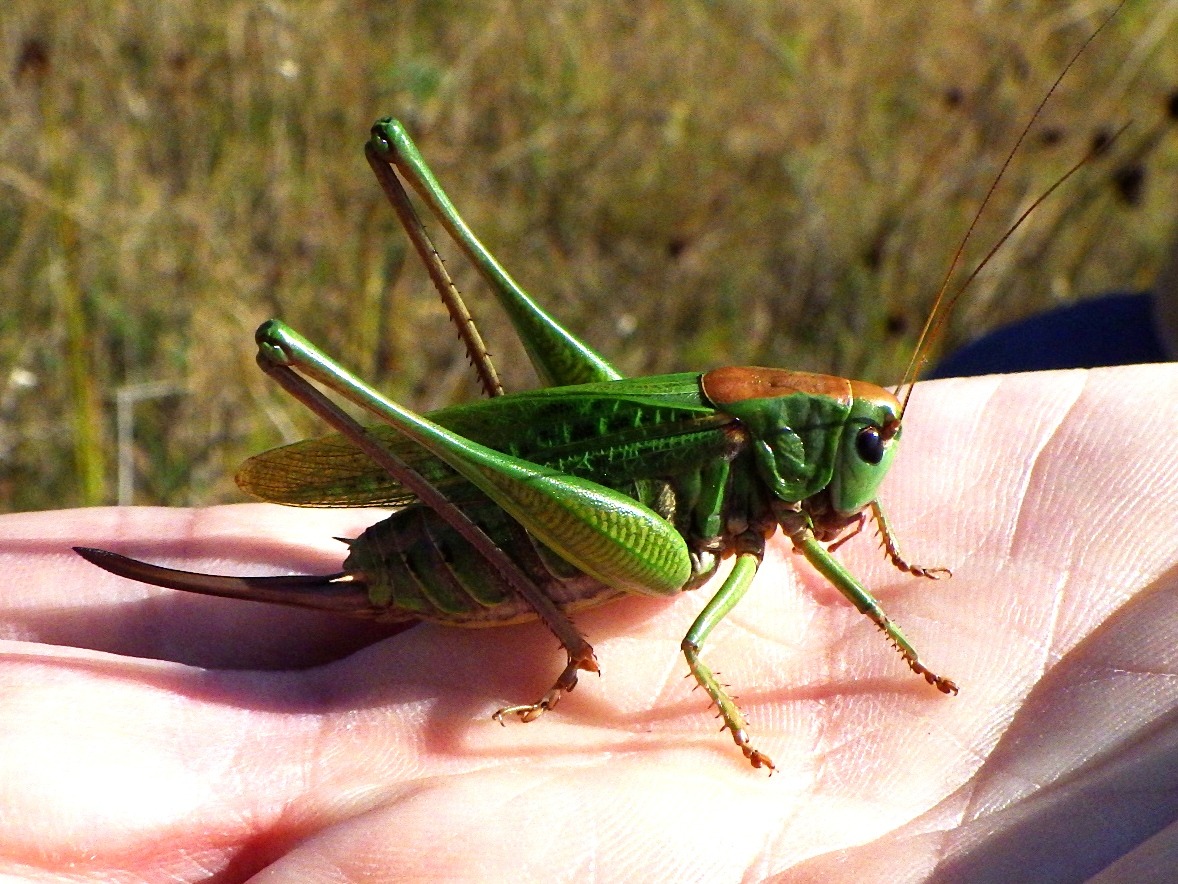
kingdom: Animalia
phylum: Arthropoda
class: Insecta
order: Orthoptera
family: Tettigoniidae
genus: Decticus
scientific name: Decticus verrucivorus
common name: Vortebider
